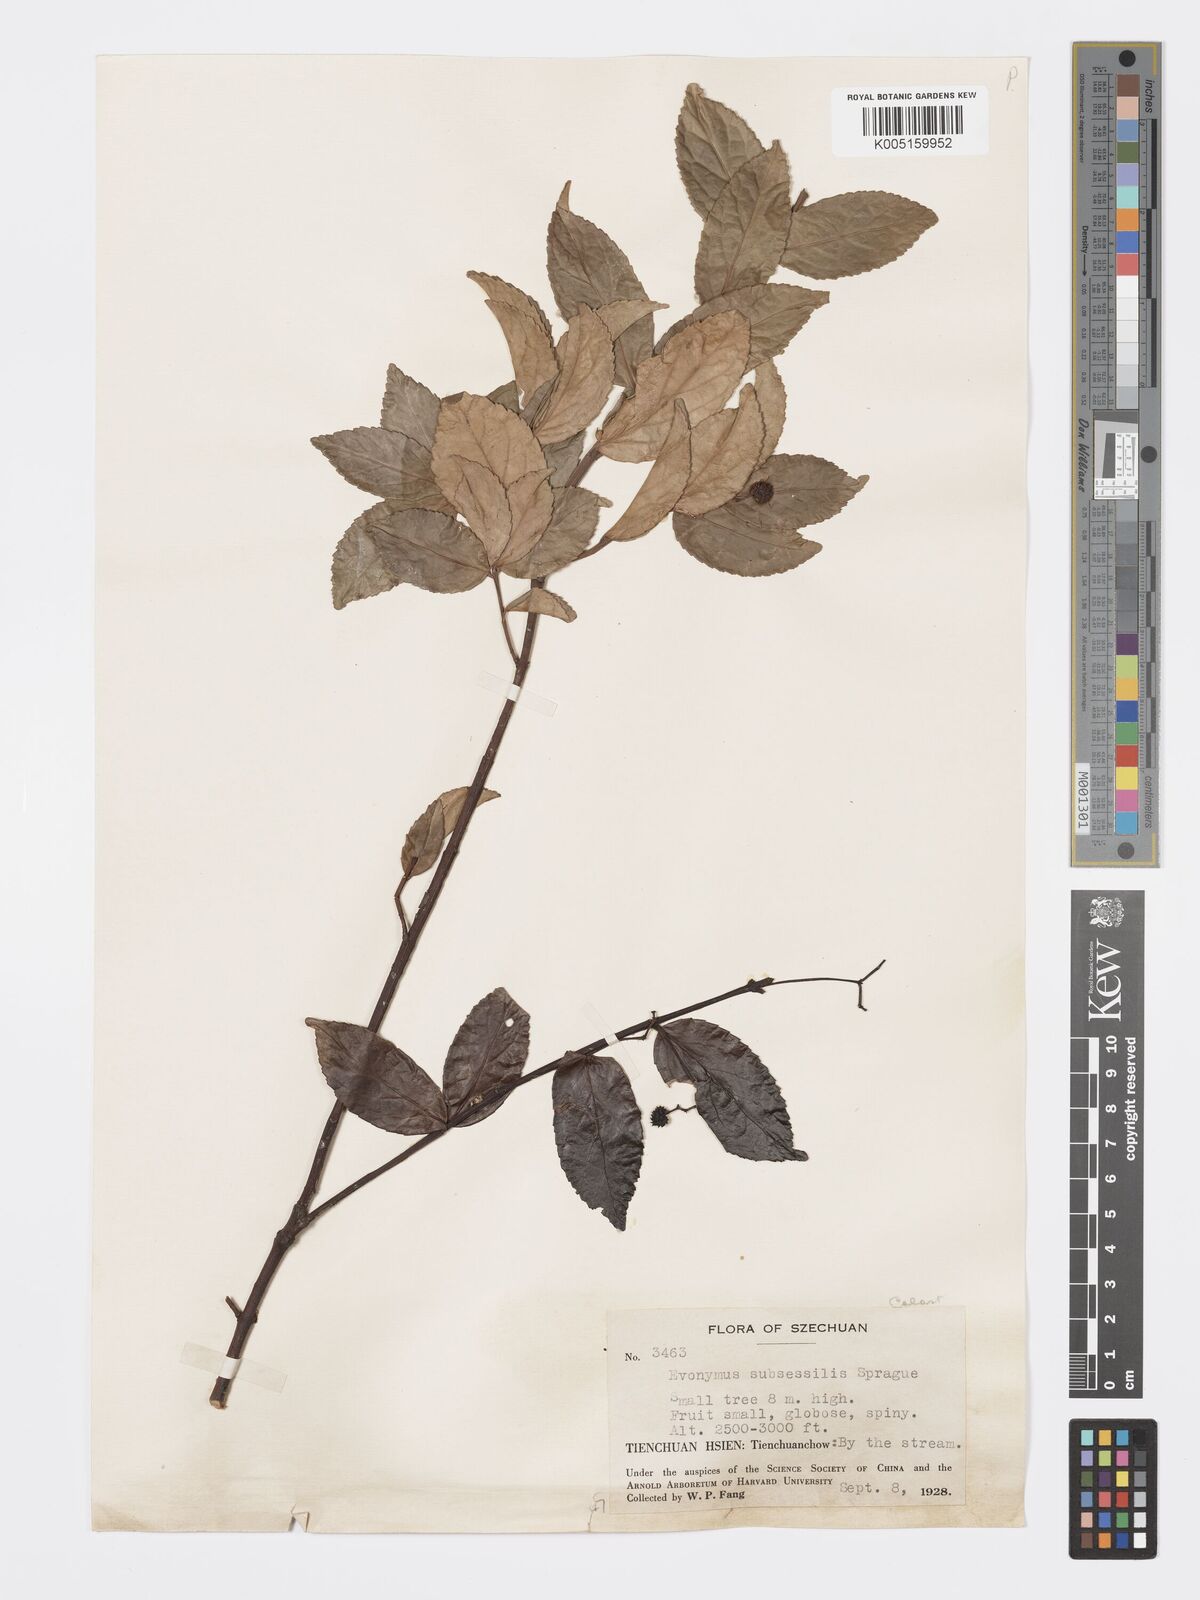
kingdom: Plantae
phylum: Tracheophyta
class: Magnoliopsida
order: Celastrales
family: Celastraceae
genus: Euonymus
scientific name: Euonymus echinatus
